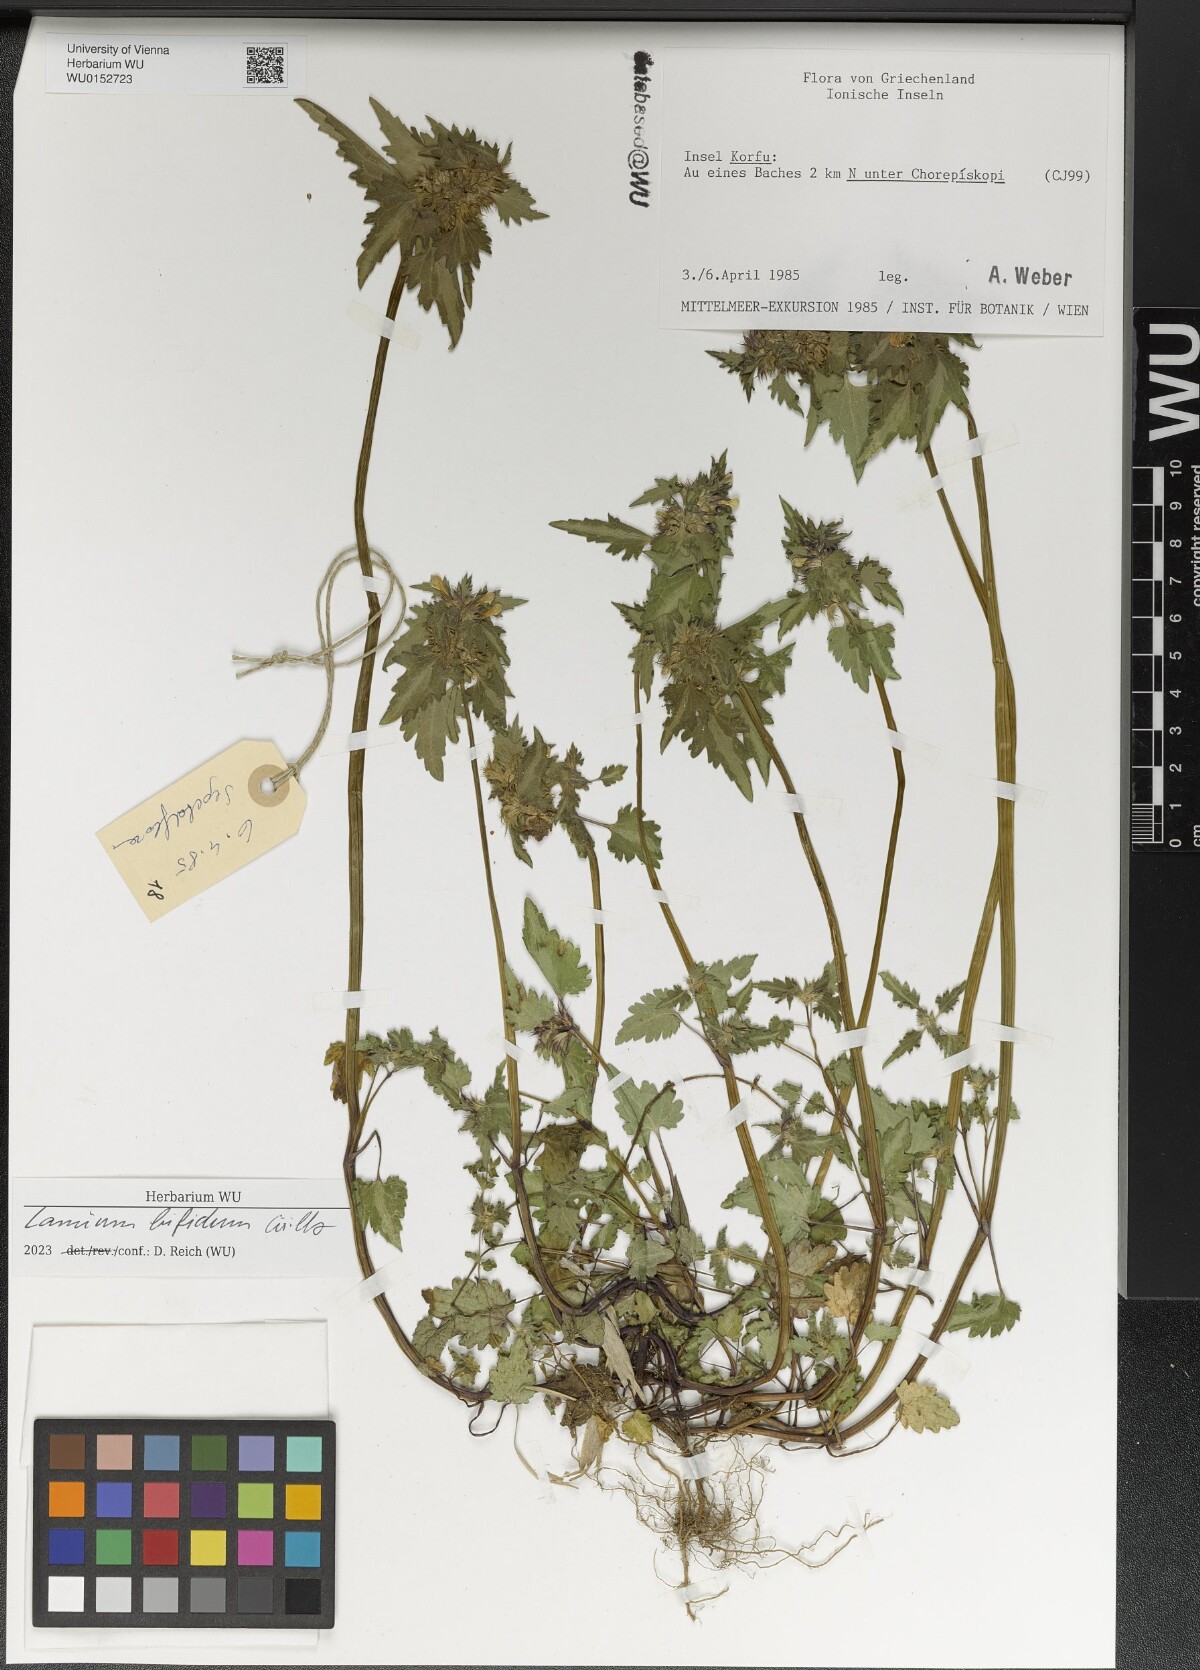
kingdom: Plantae
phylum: Tracheophyta
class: Magnoliopsida
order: Lamiales
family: Lamiaceae
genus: Lamium
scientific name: Lamium bifidum
